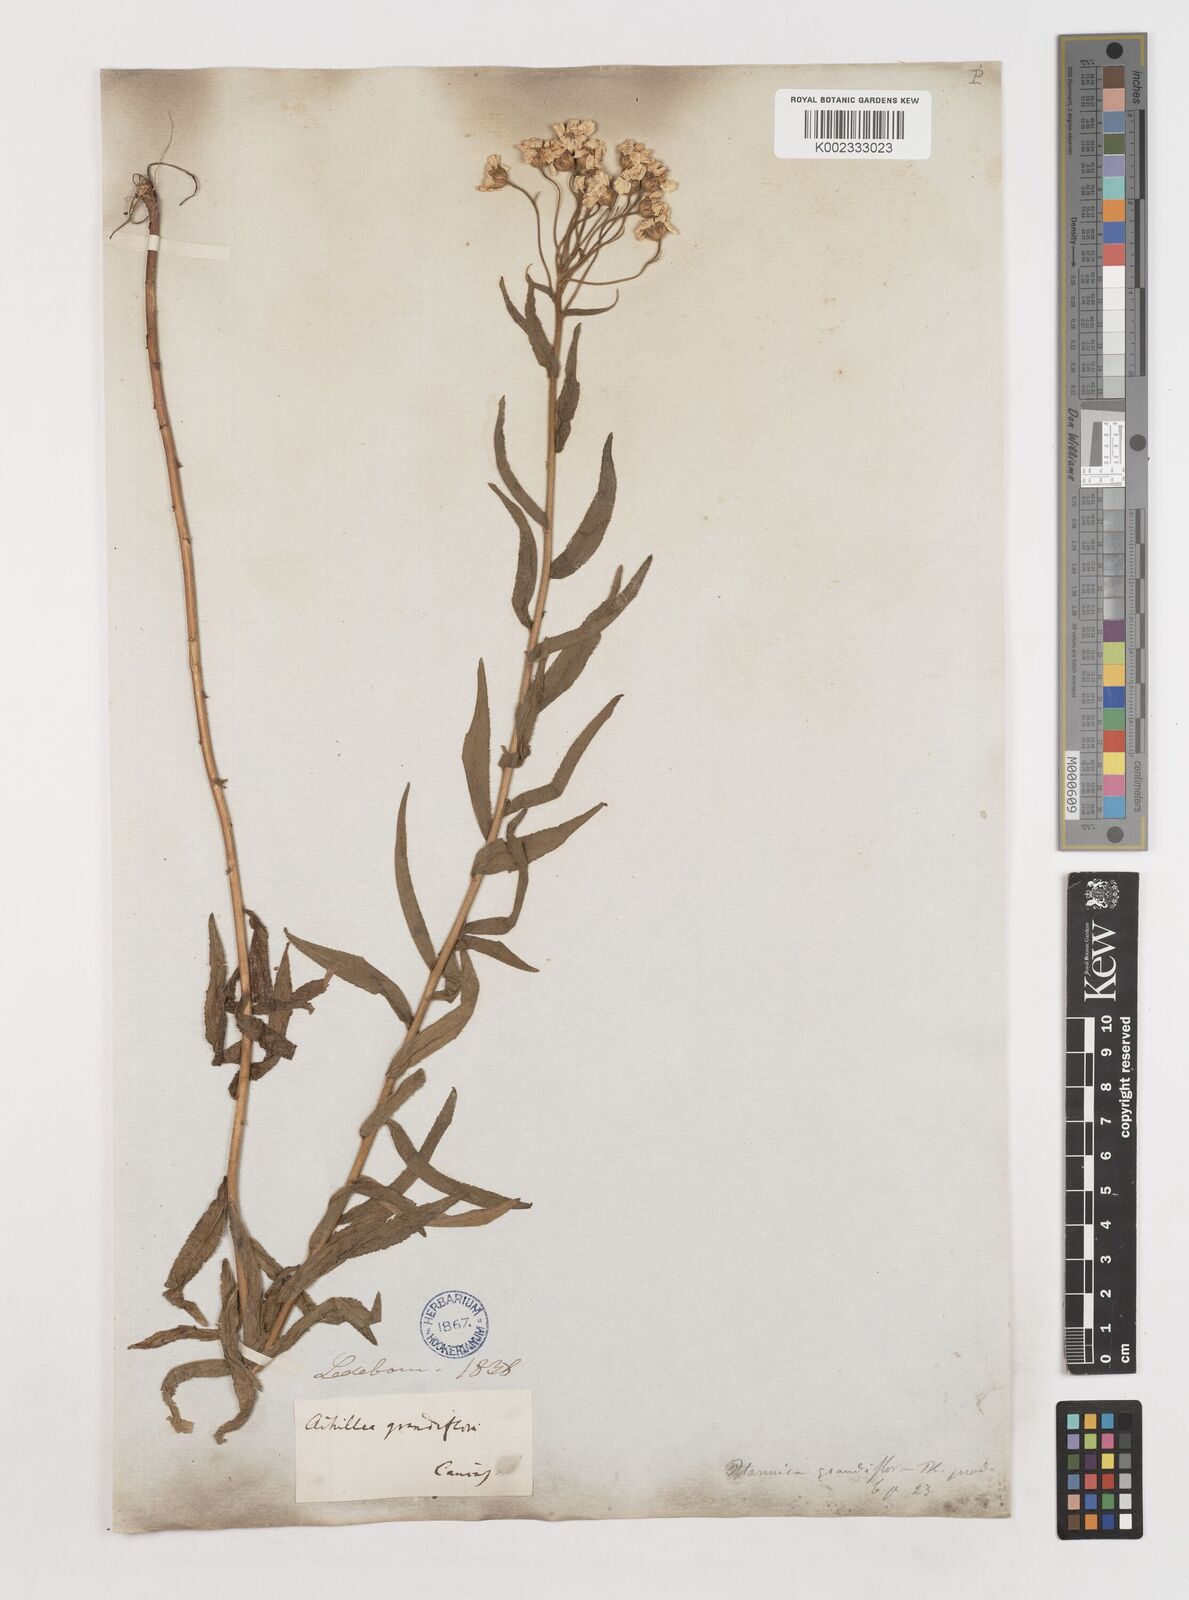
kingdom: Plantae
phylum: Tracheophyta
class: Magnoliopsida
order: Asterales
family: Asteraceae
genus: Achillea
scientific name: Achillea ptarmicifolia
